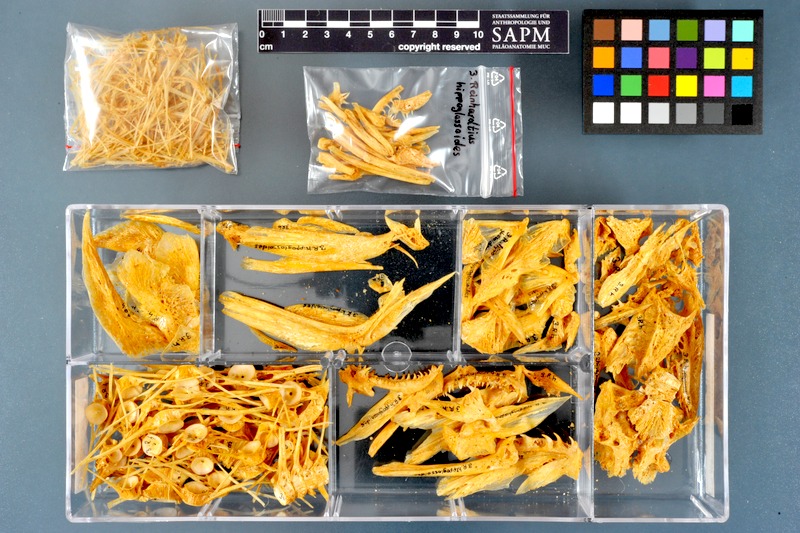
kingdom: Animalia
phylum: Chordata
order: Pleuronectiformes
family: Pleuronectidae
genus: Reinhardtius
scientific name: Reinhardtius hippoglossoides
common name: Greenland halibut
